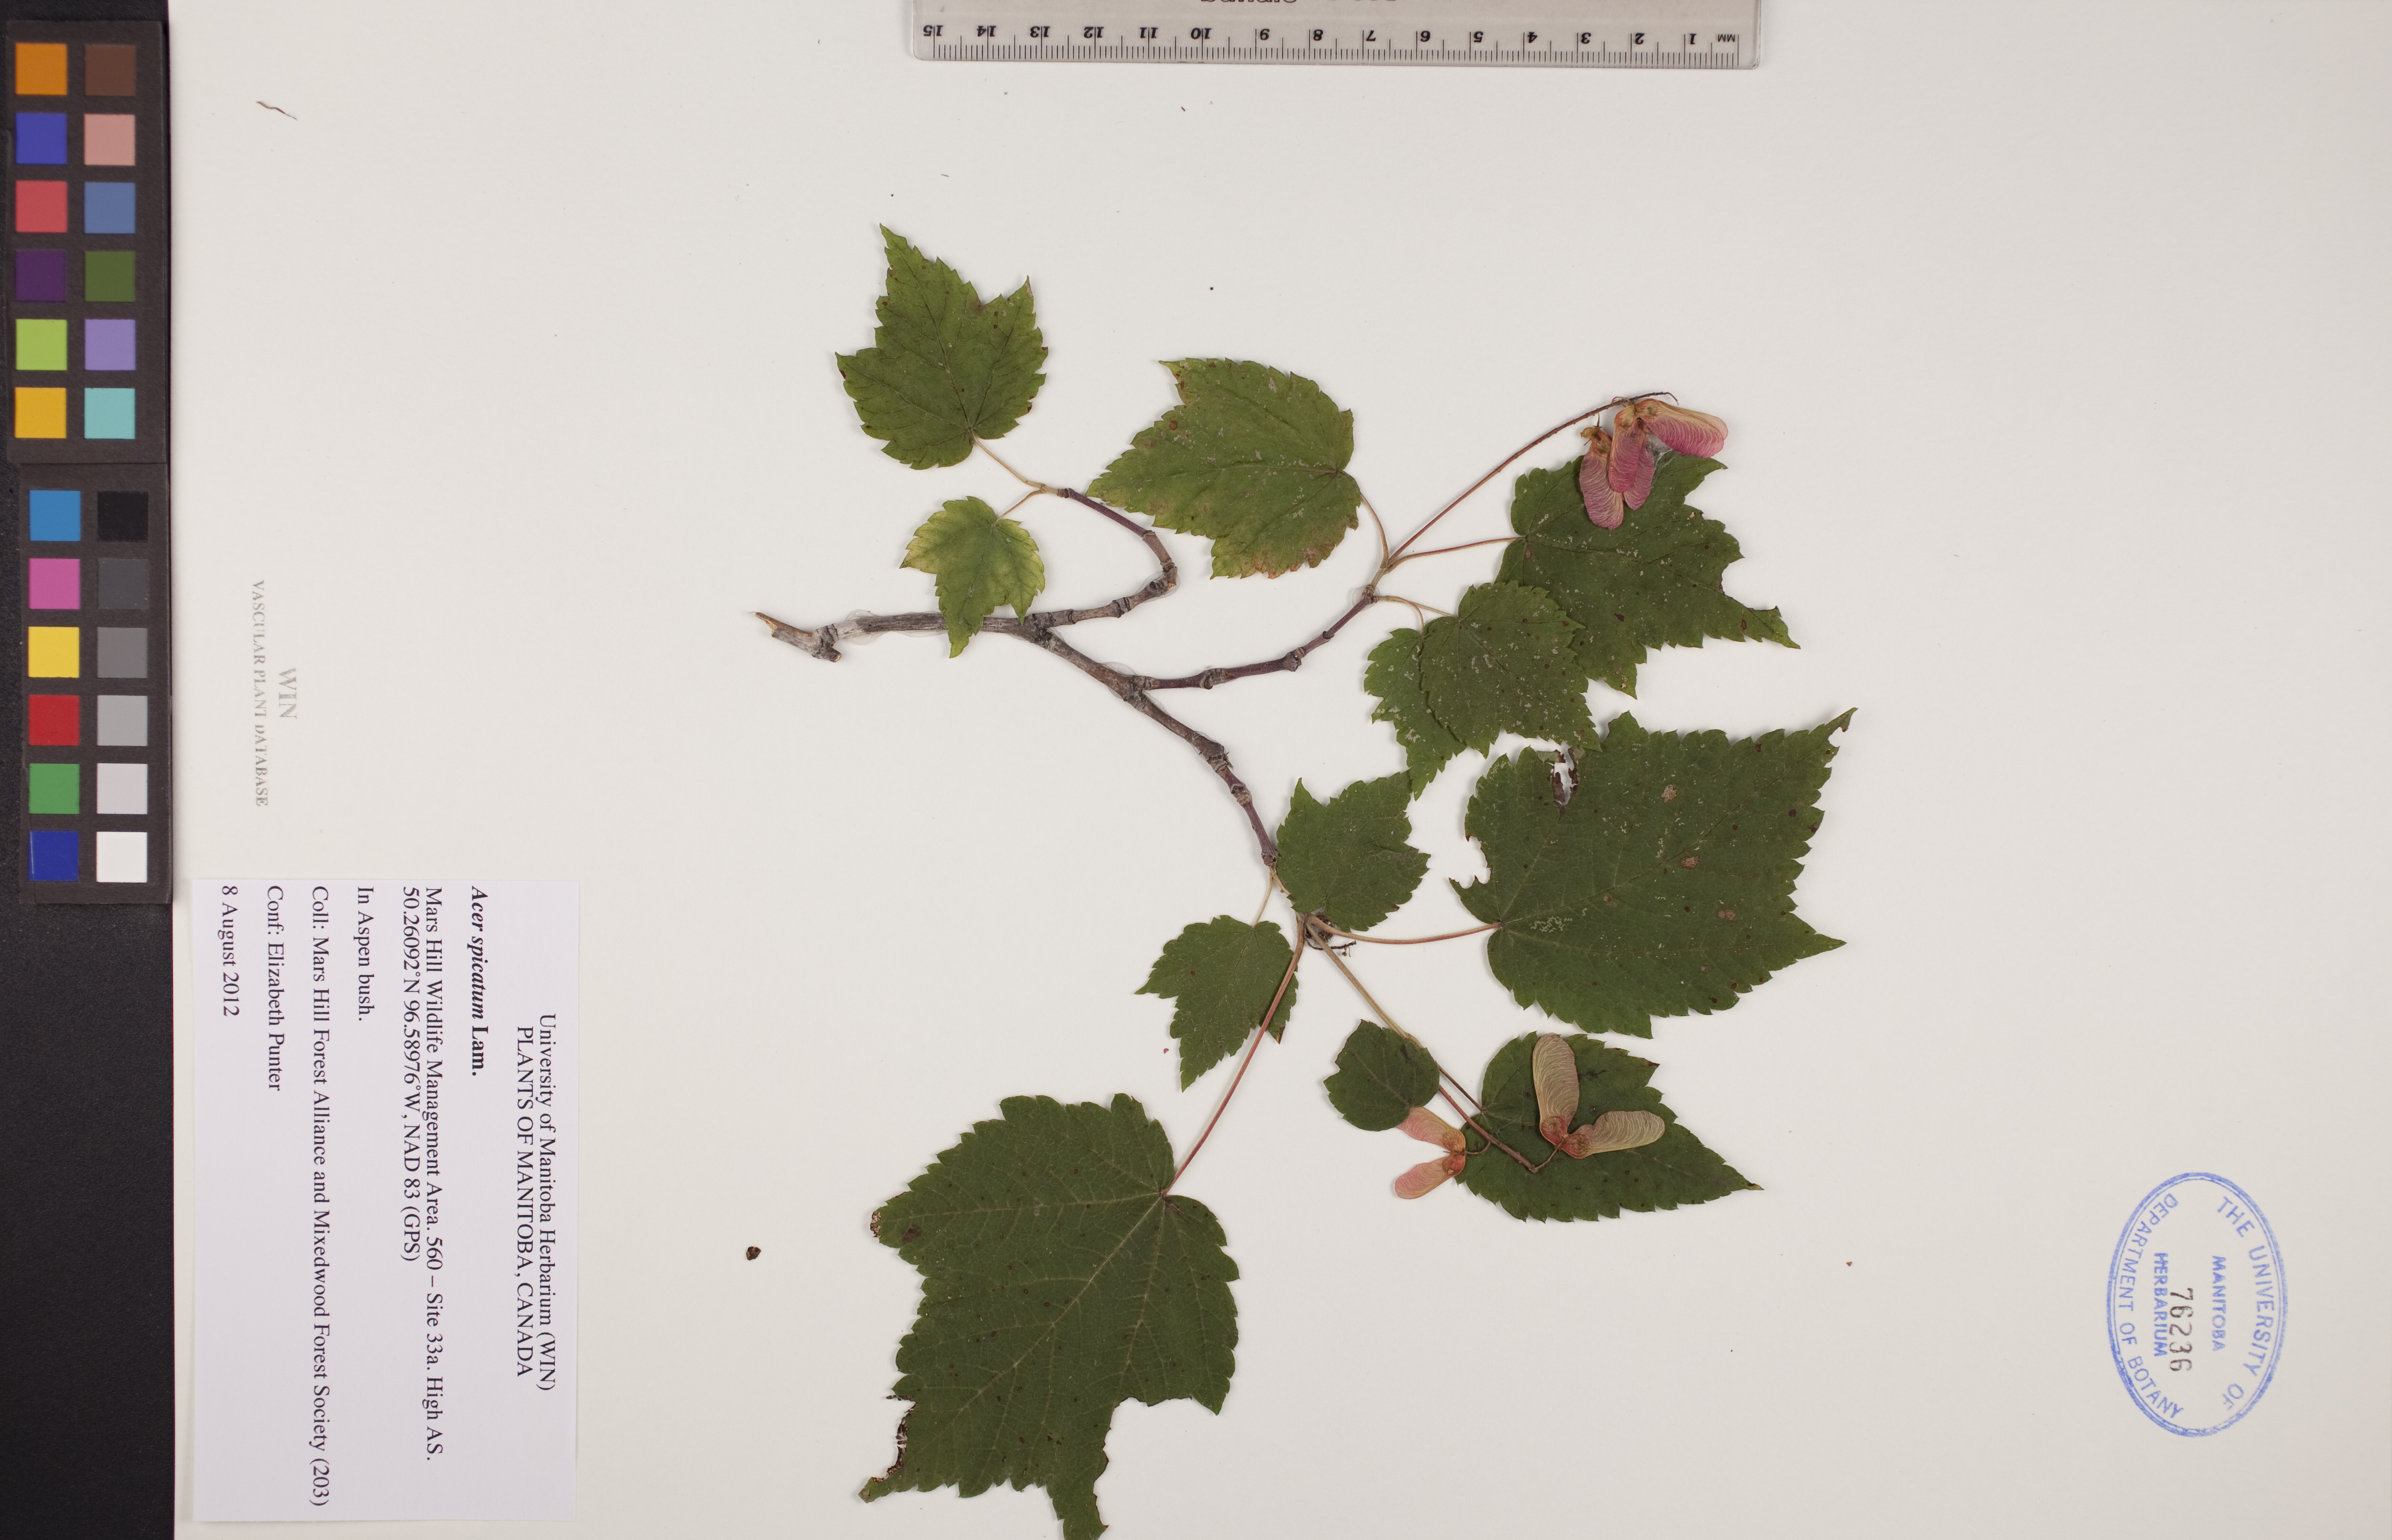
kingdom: Plantae
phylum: Tracheophyta
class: Magnoliopsida
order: Sapindales
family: Sapindaceae
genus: Acer
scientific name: Acer spicatum
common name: Mountain maple
